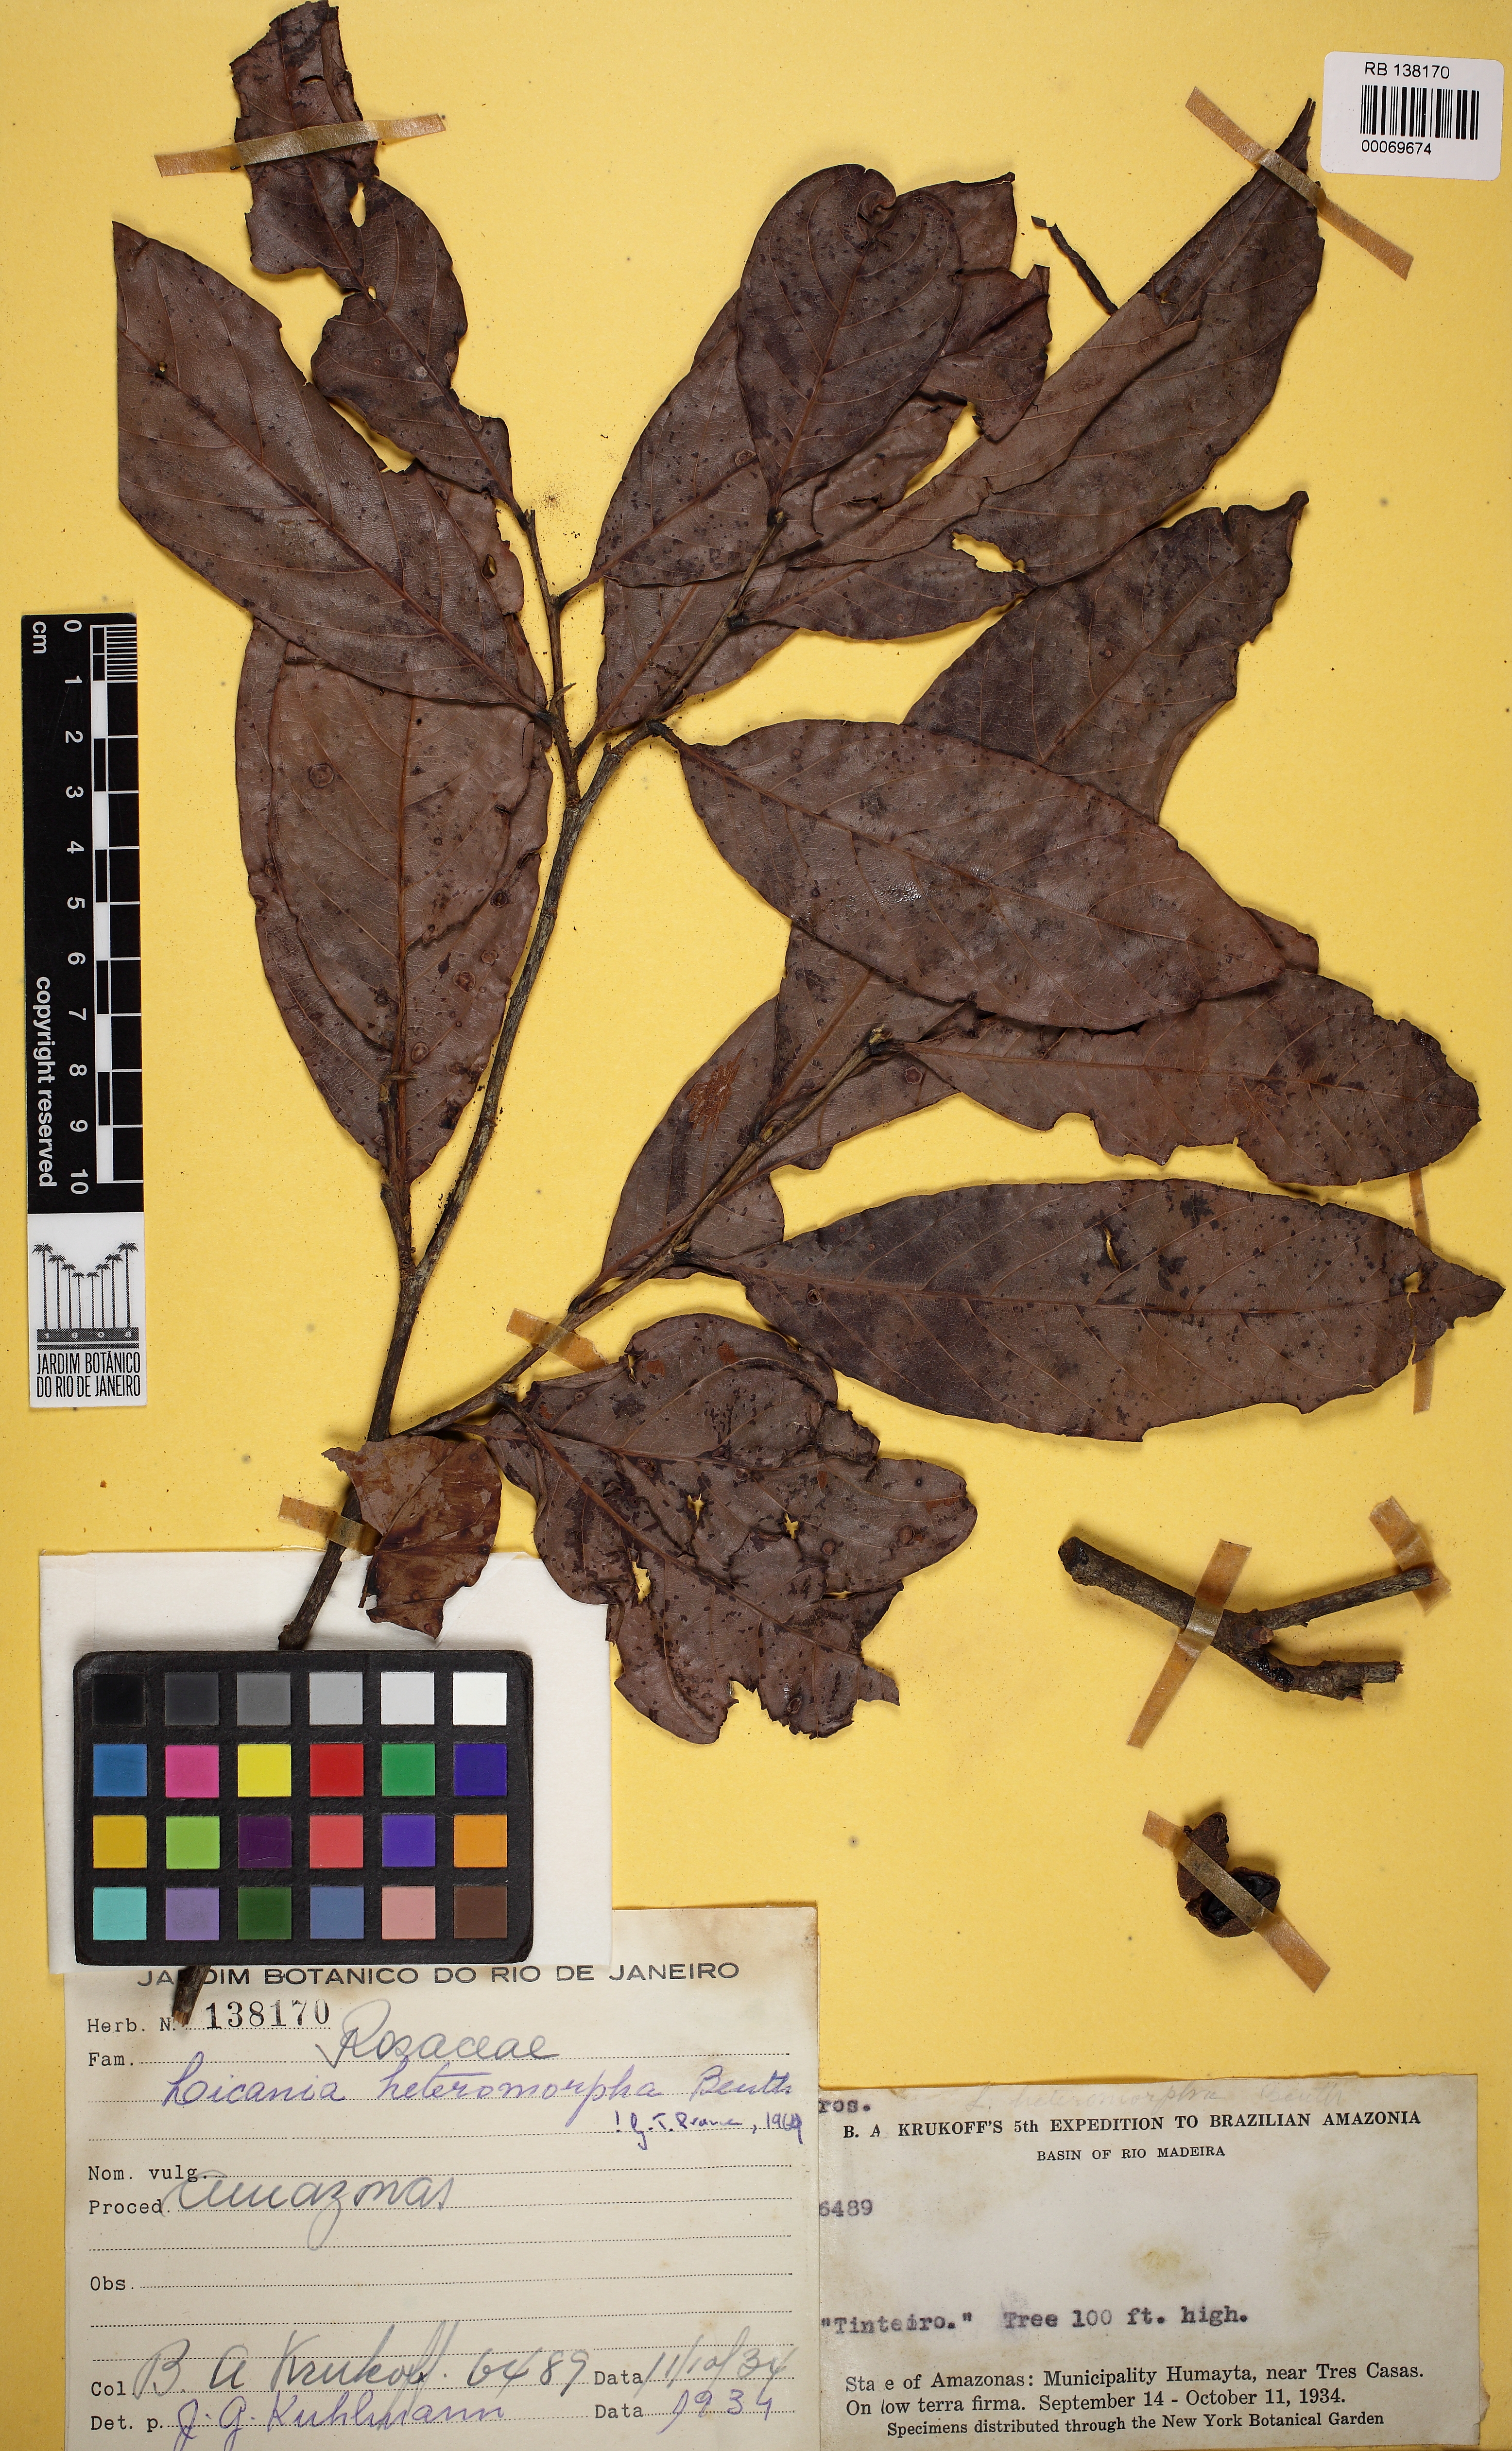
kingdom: Plantae
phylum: Tracheophyta
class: Magnoliopsida
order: Malpighiales
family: Chrysobalanaceae
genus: Hymenopus
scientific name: Hymenopus heteromorphus
